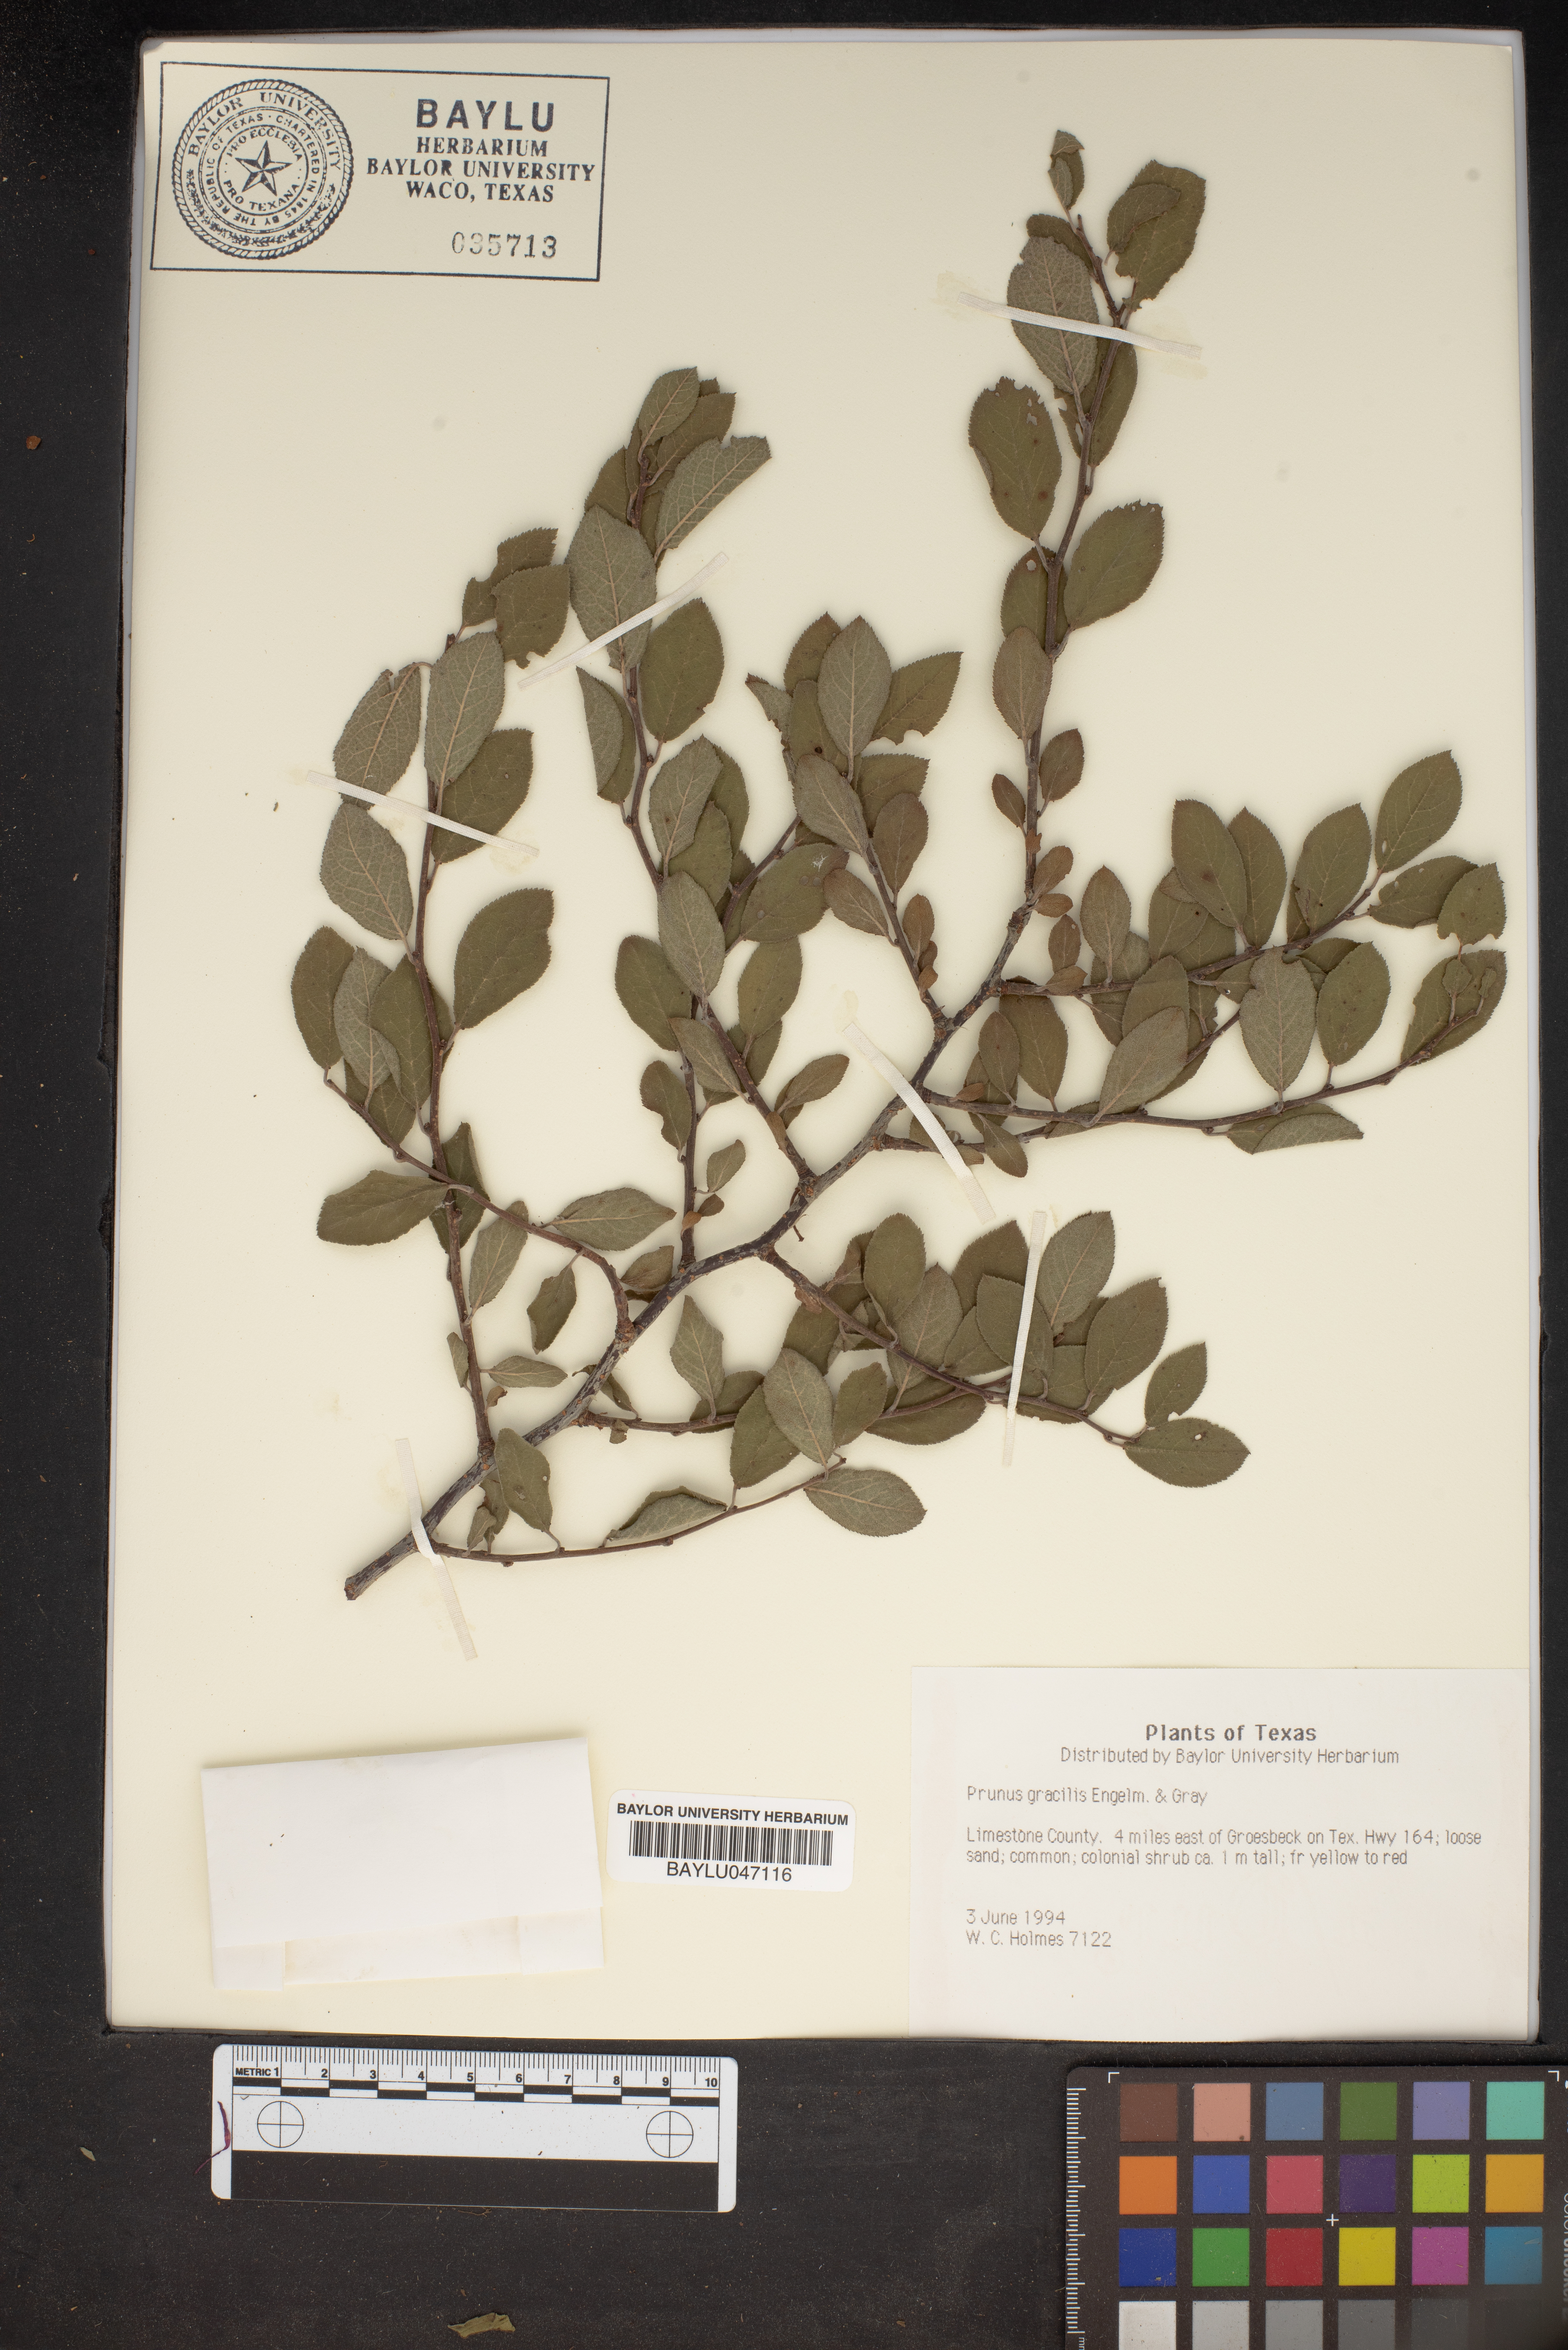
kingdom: Plantae
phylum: Tracheophyta
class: Magnoliopsida
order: Rosales
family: Rosaceae
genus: Prunus
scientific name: Prunus gracilis
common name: Oklahoma plum
